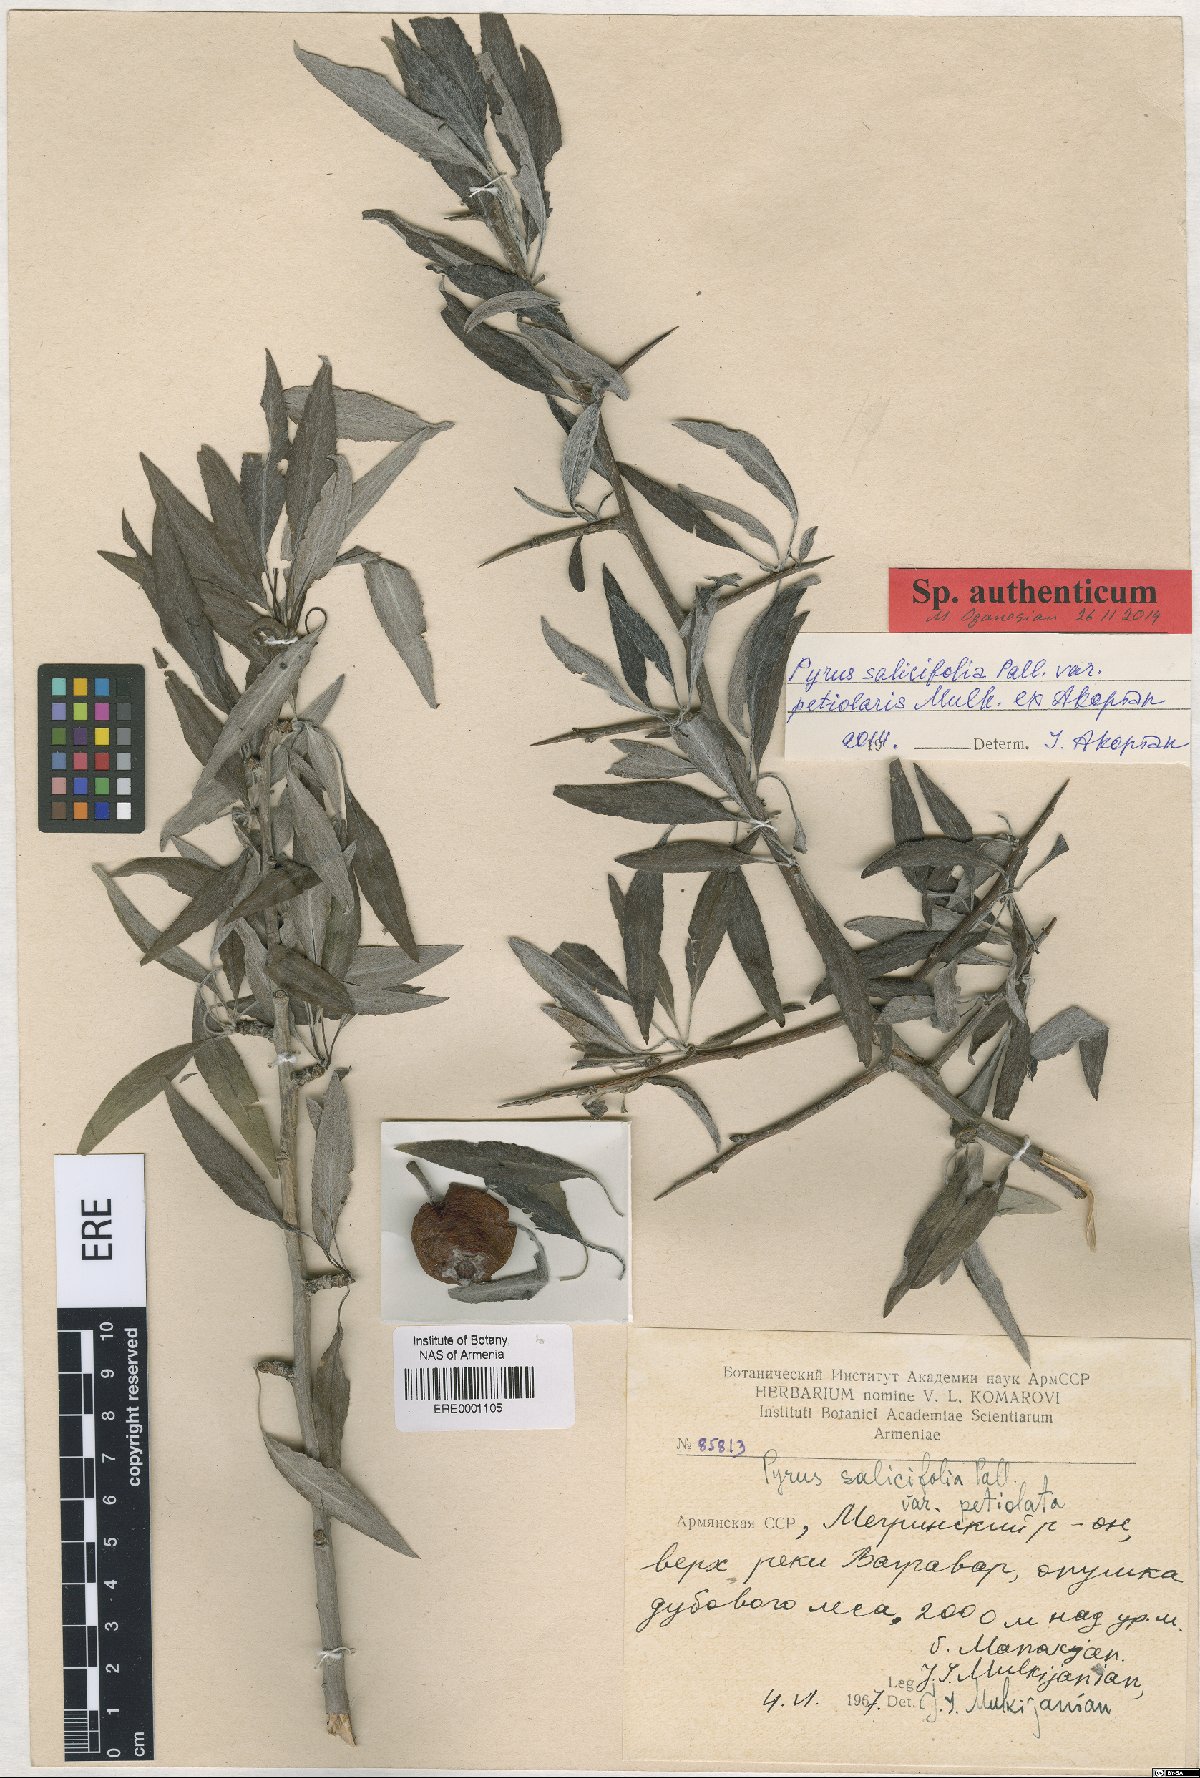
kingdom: Plantae
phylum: Tracheophyta
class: Magnoliopsida
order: Rosales
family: Rosaceae
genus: Pyrus
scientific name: Pyrus salicifolia
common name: Willow-leaved pear
